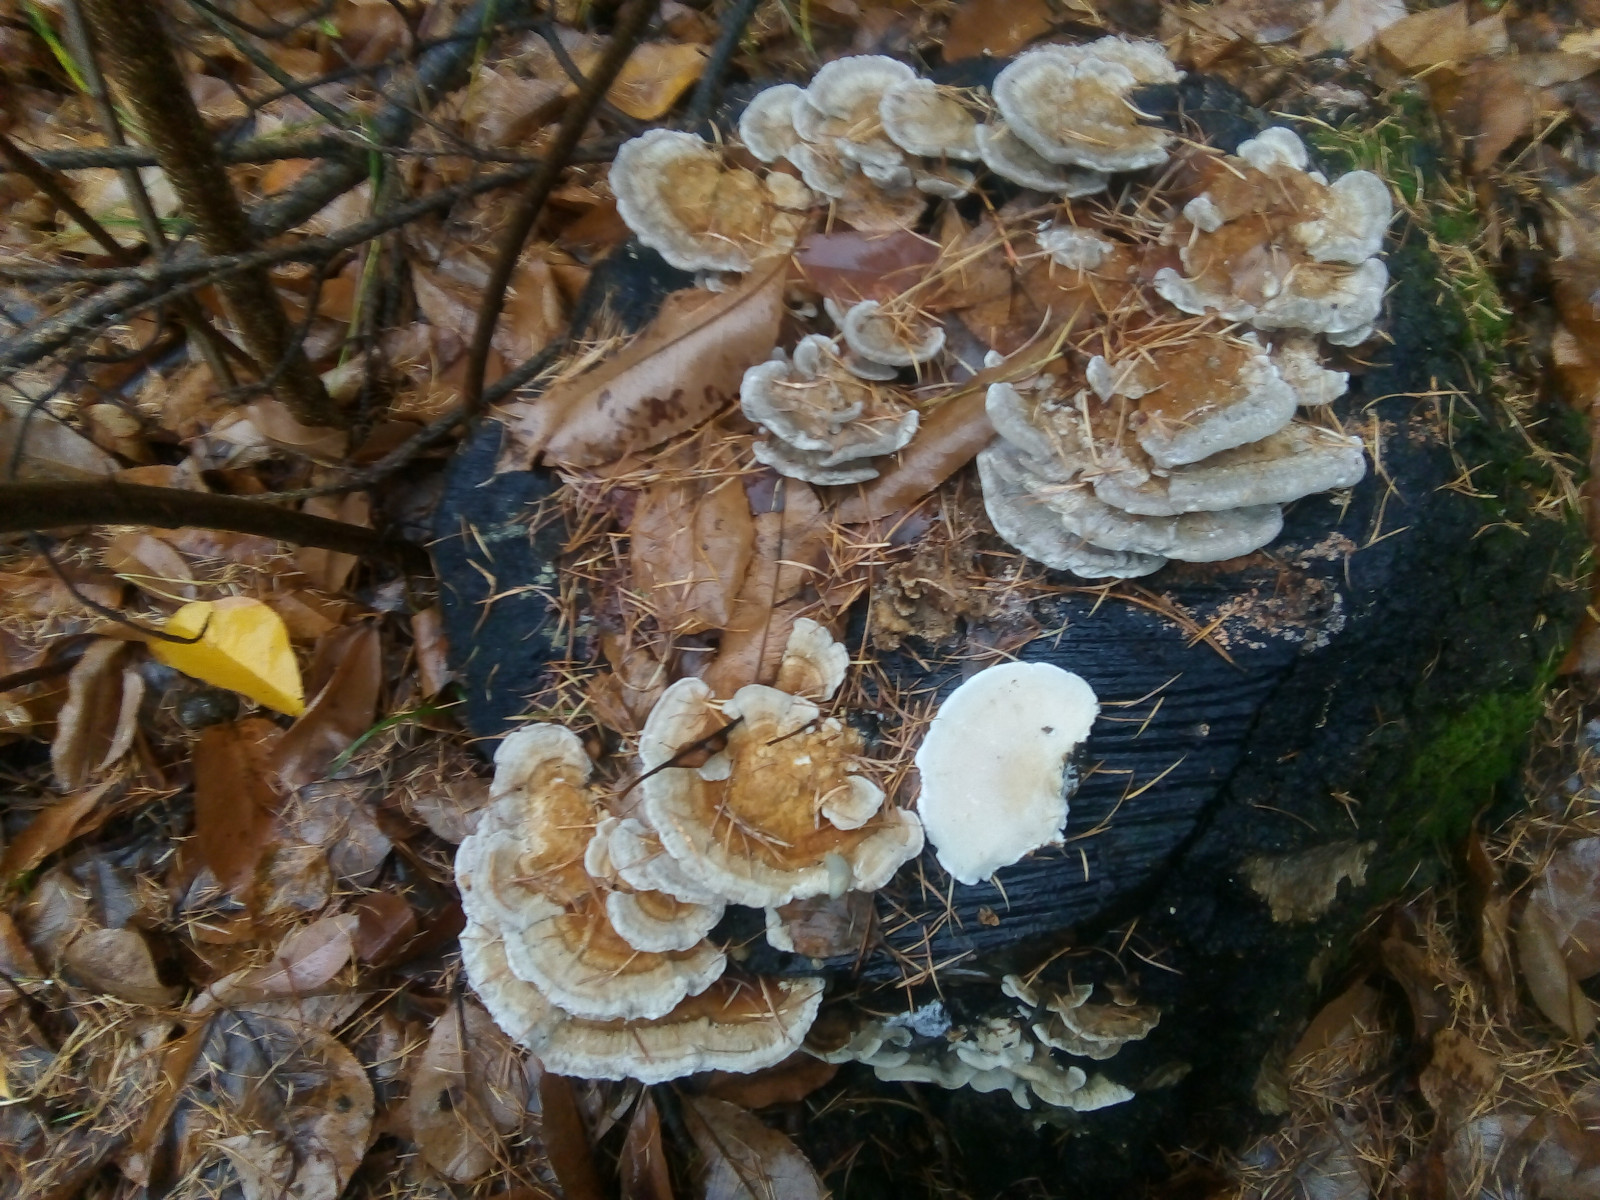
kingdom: Fungi
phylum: Basidiomycota
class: Agaricomycetes
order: Polyporales
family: Polyporaceae
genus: Trametes
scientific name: Trametes ochracea
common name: bæltet læderporesvamp
